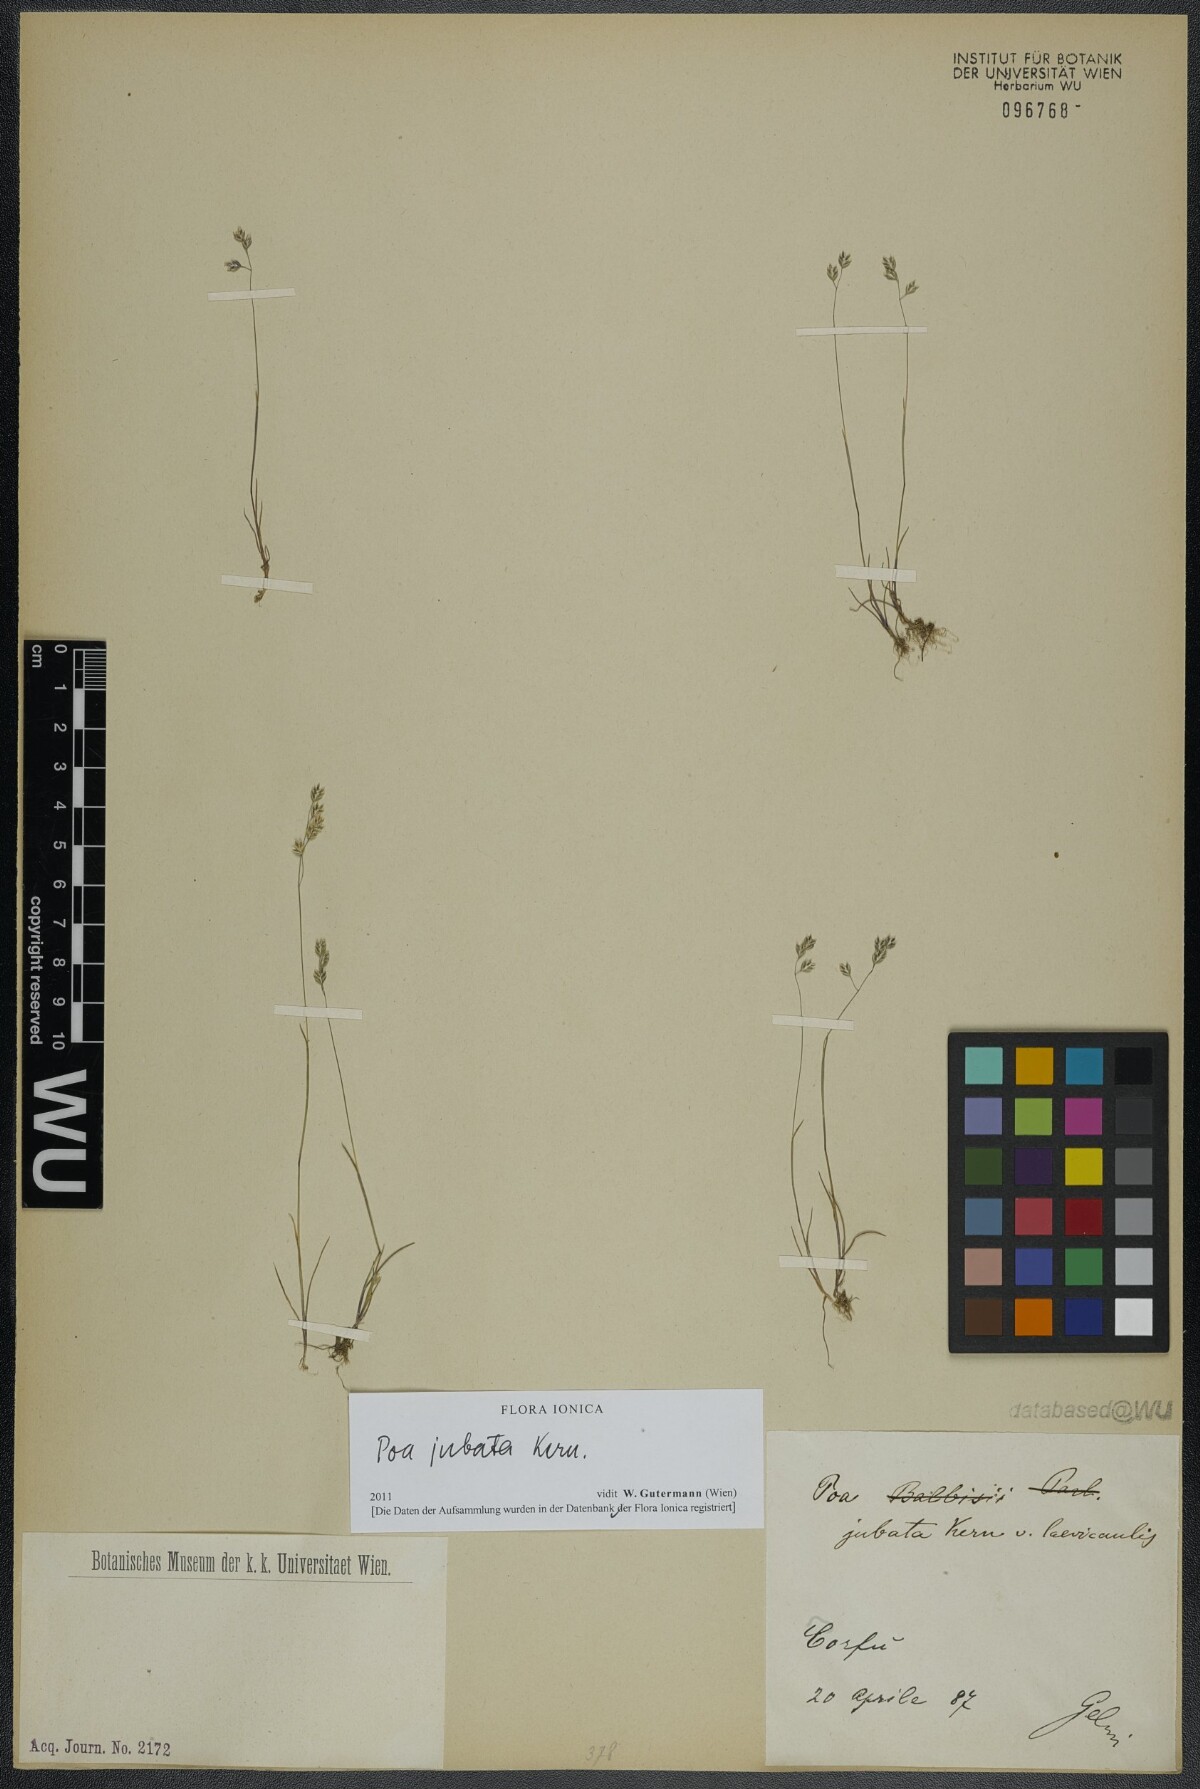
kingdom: Plantae
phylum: Tracheophyta
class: Liliopsida
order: Poales
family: Poaceae
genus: Poa
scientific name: Poa jubata
